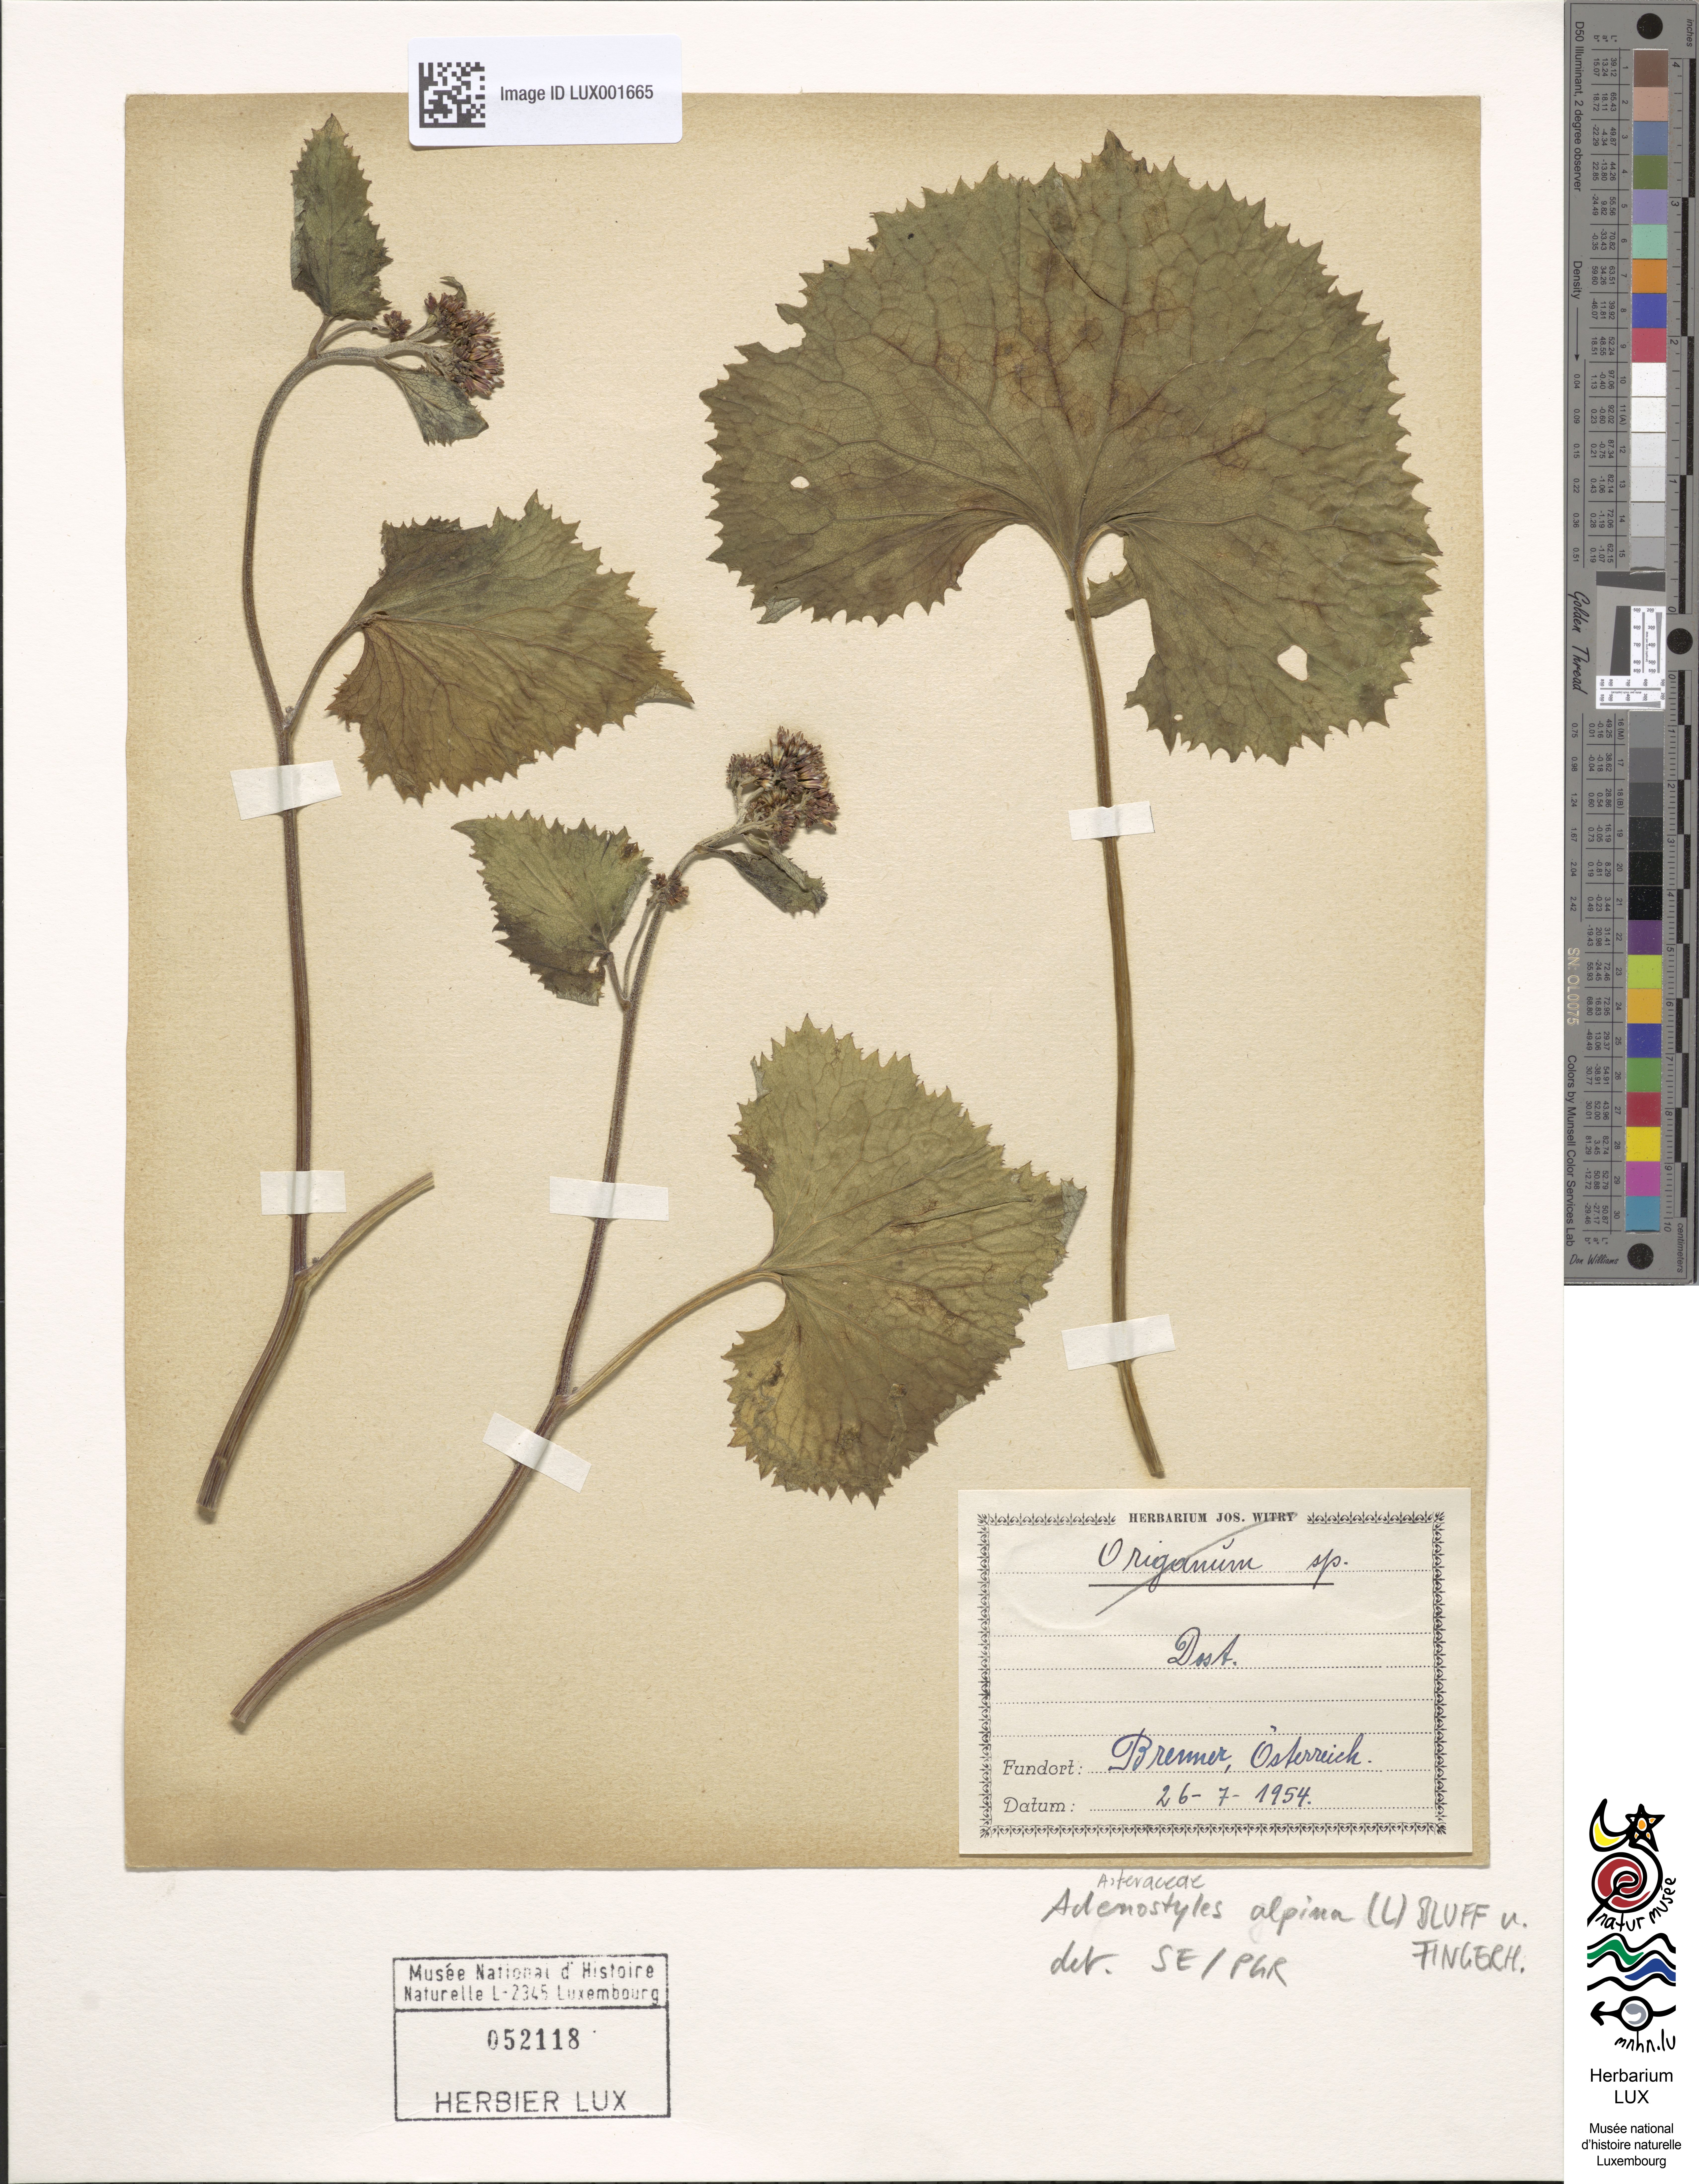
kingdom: Plantae
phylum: Tracheophyta
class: Magnoliopsida
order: Asterales
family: Asteraceae
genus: Adenostyles
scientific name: Adenostyles alpina
